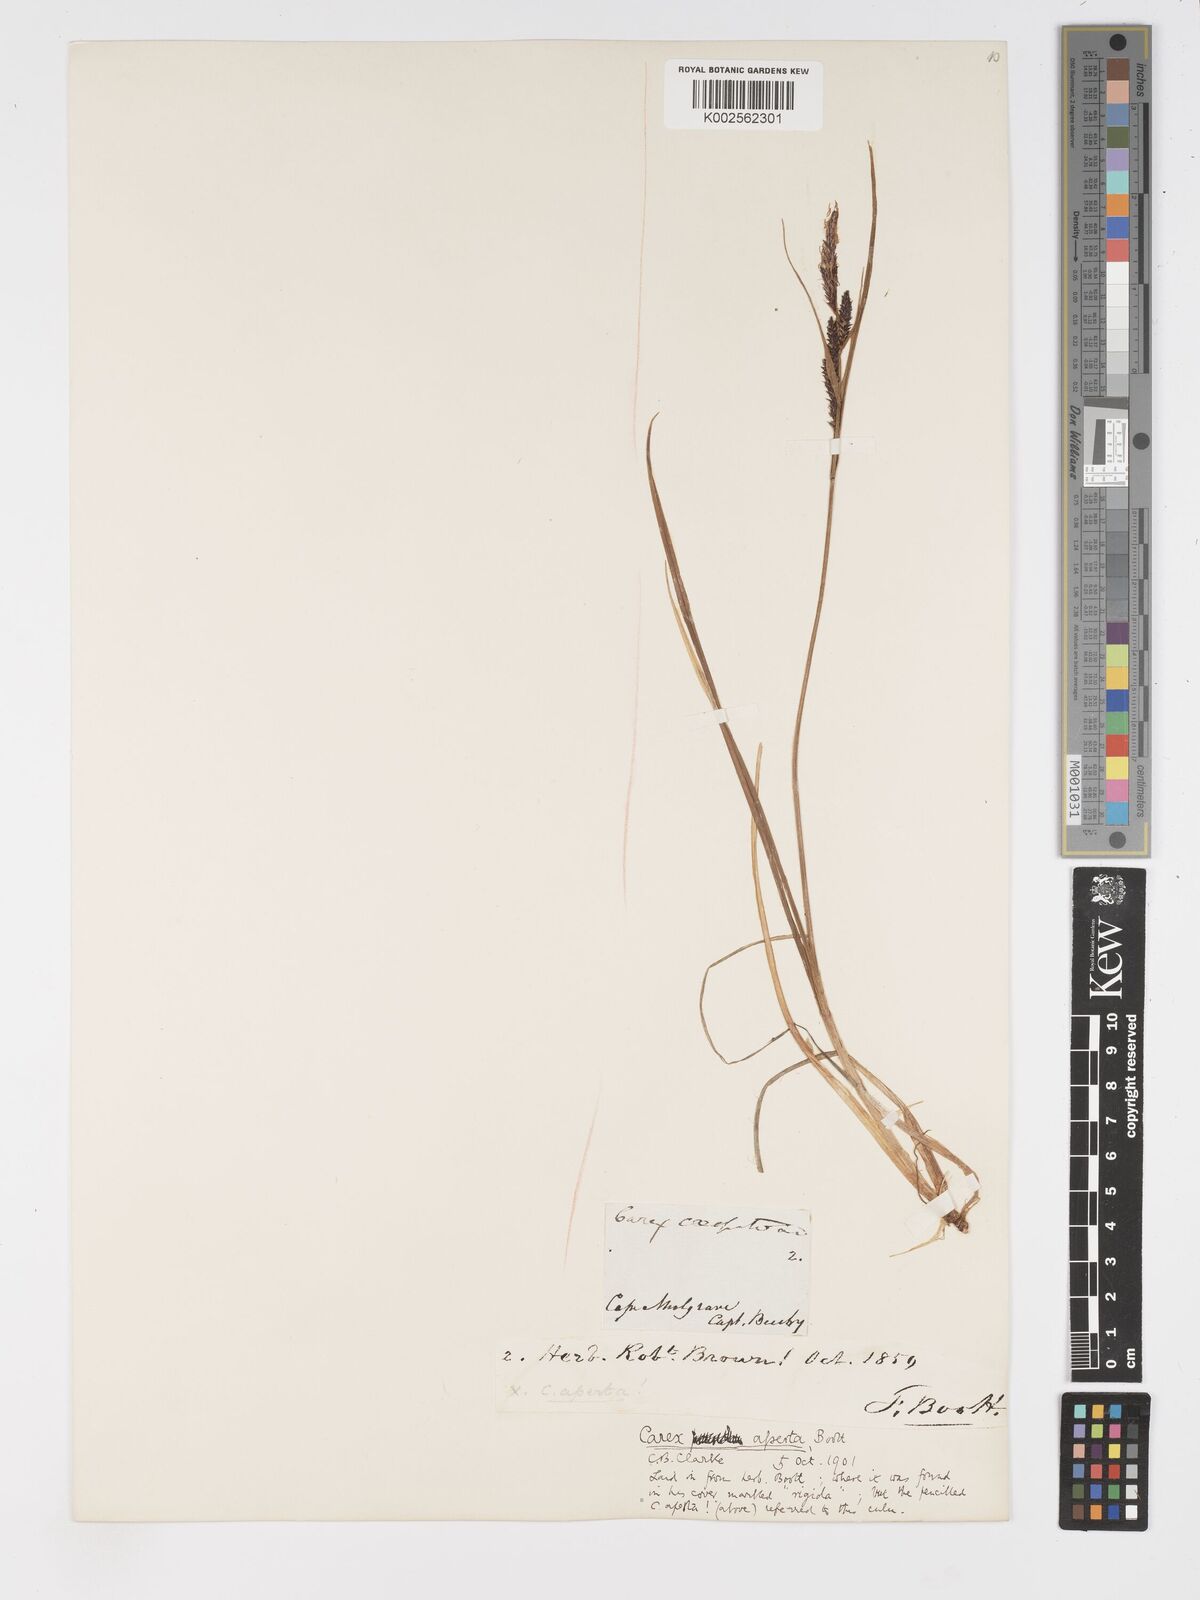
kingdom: Plantae
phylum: Tracheophyta
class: Liliopsida
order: Poales
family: Cyperaceae
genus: Carex
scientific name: Carex aperta
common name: Columbia sedge
